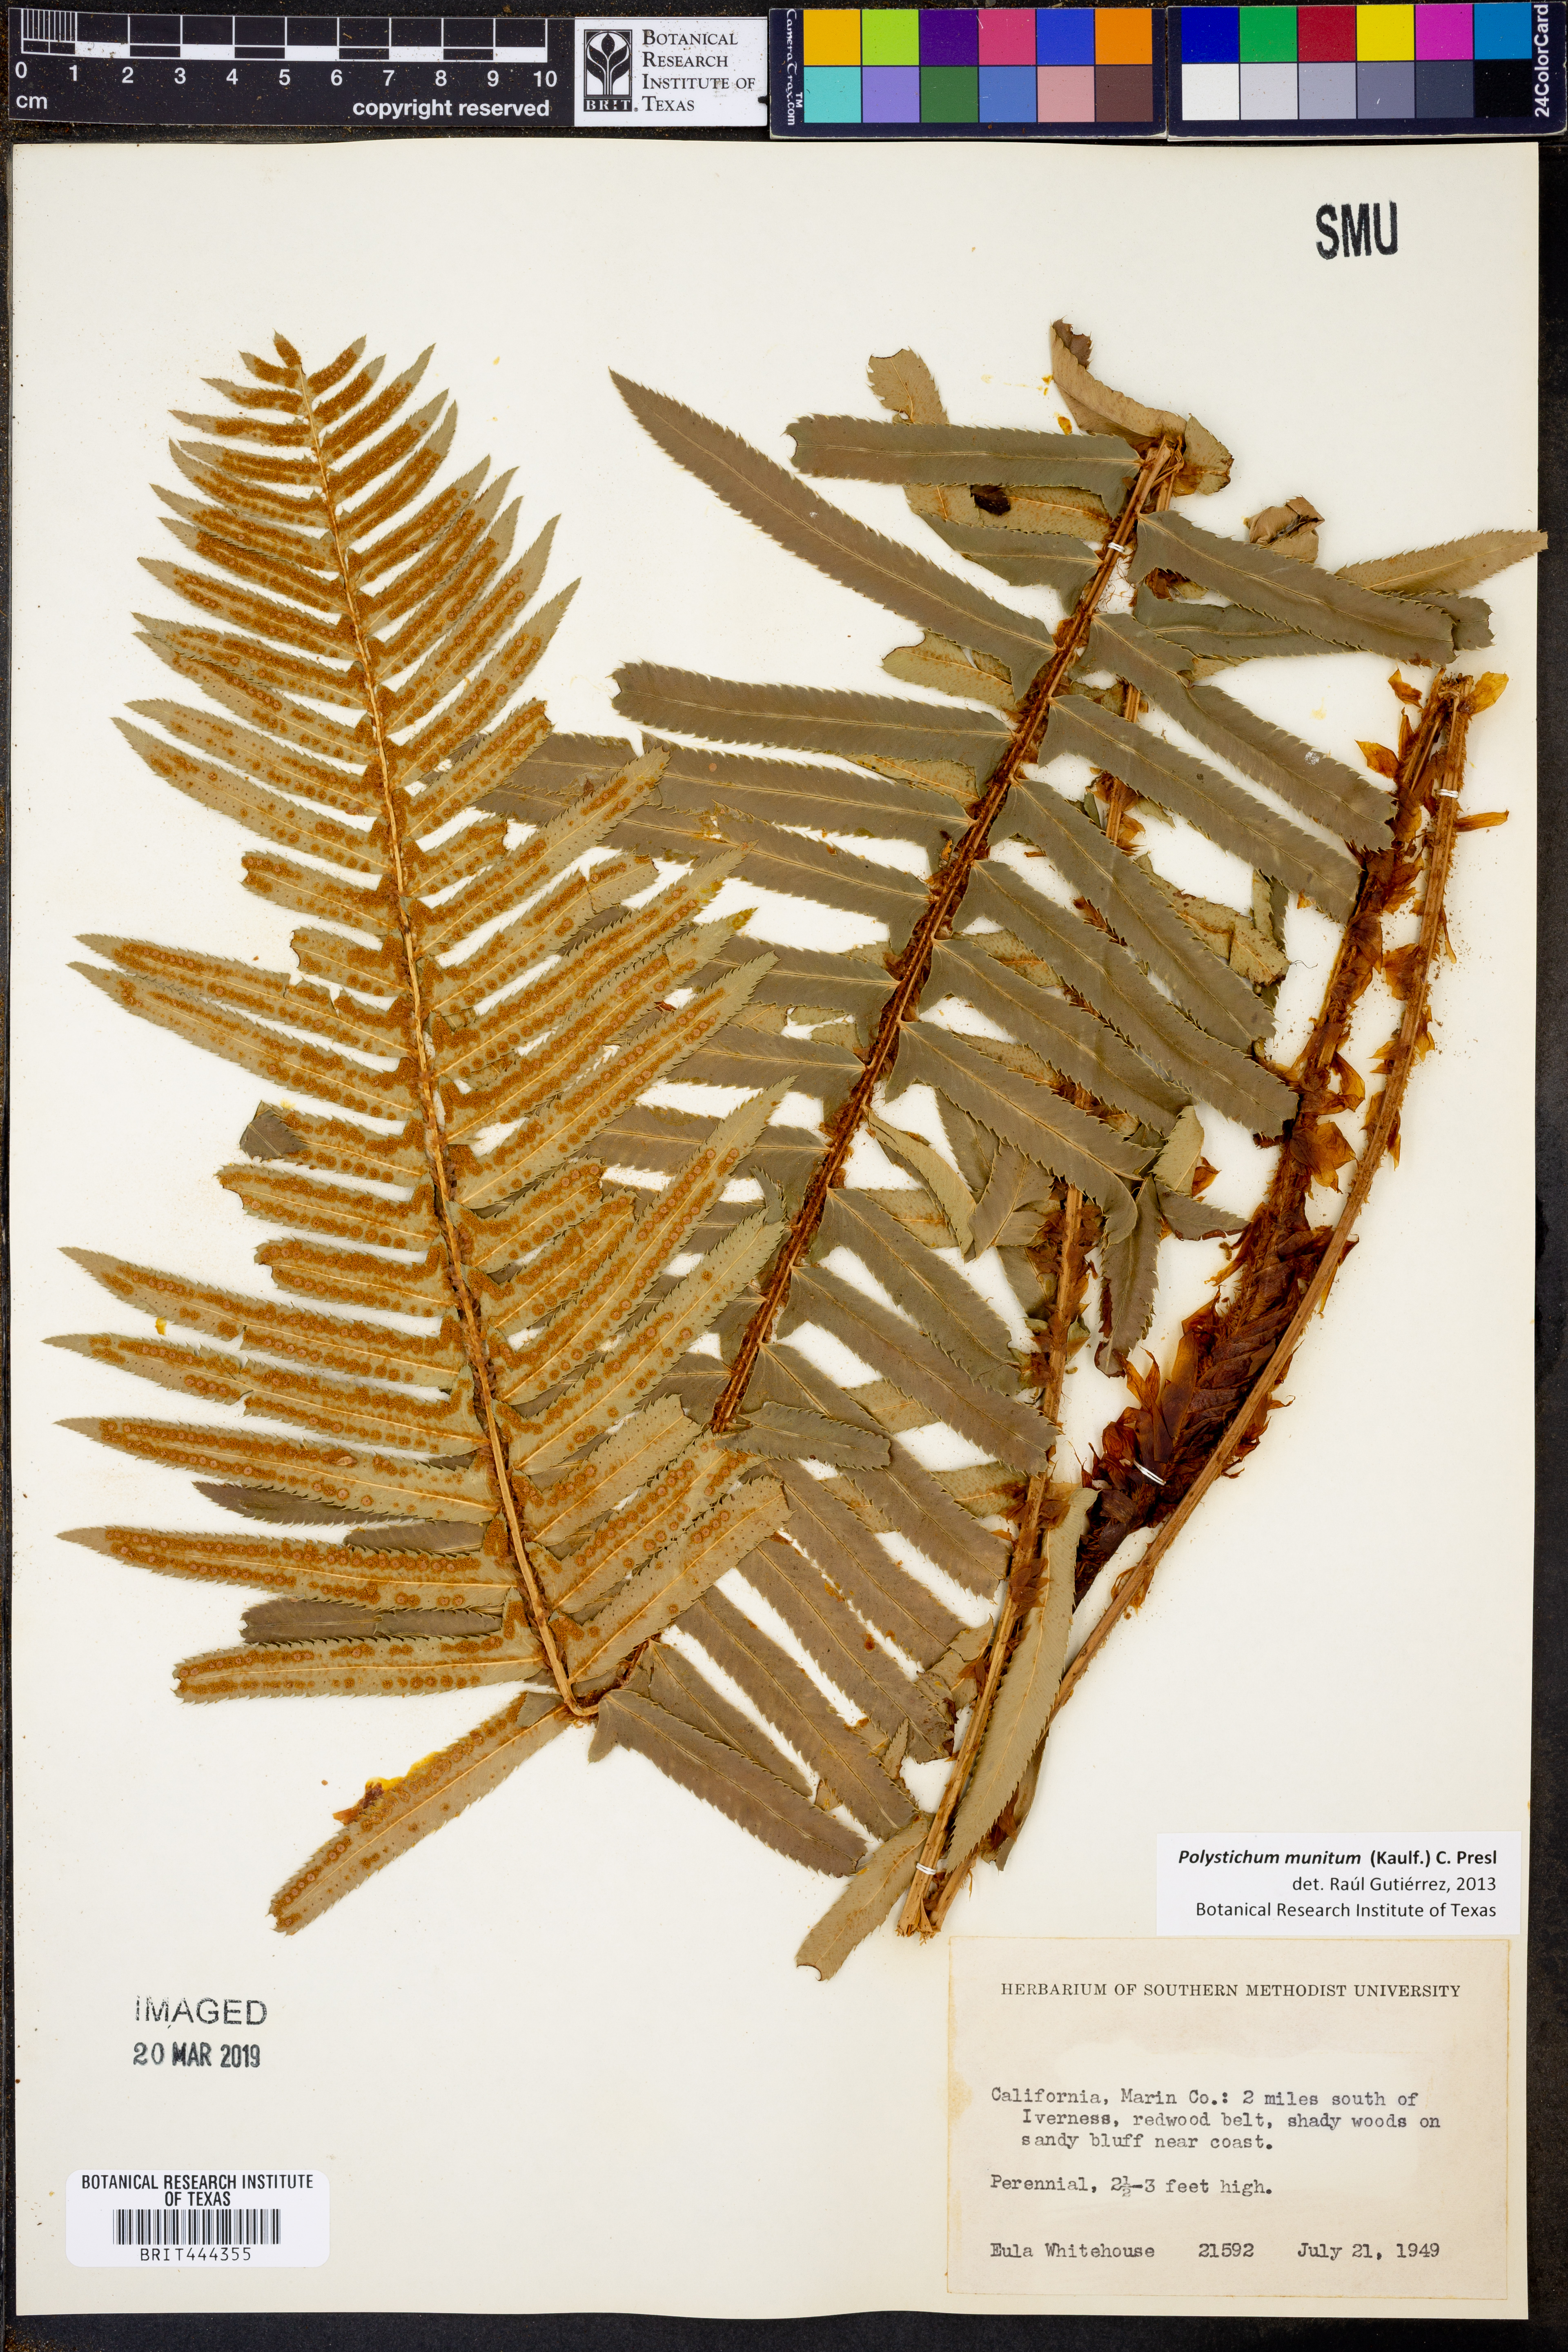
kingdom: Plantae
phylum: Tracheophyta
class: Polypodiopsida
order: Polypodiales
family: Dryopteridaceae
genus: Polystichum
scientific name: Polystichum munitum
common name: Western sword-fern
